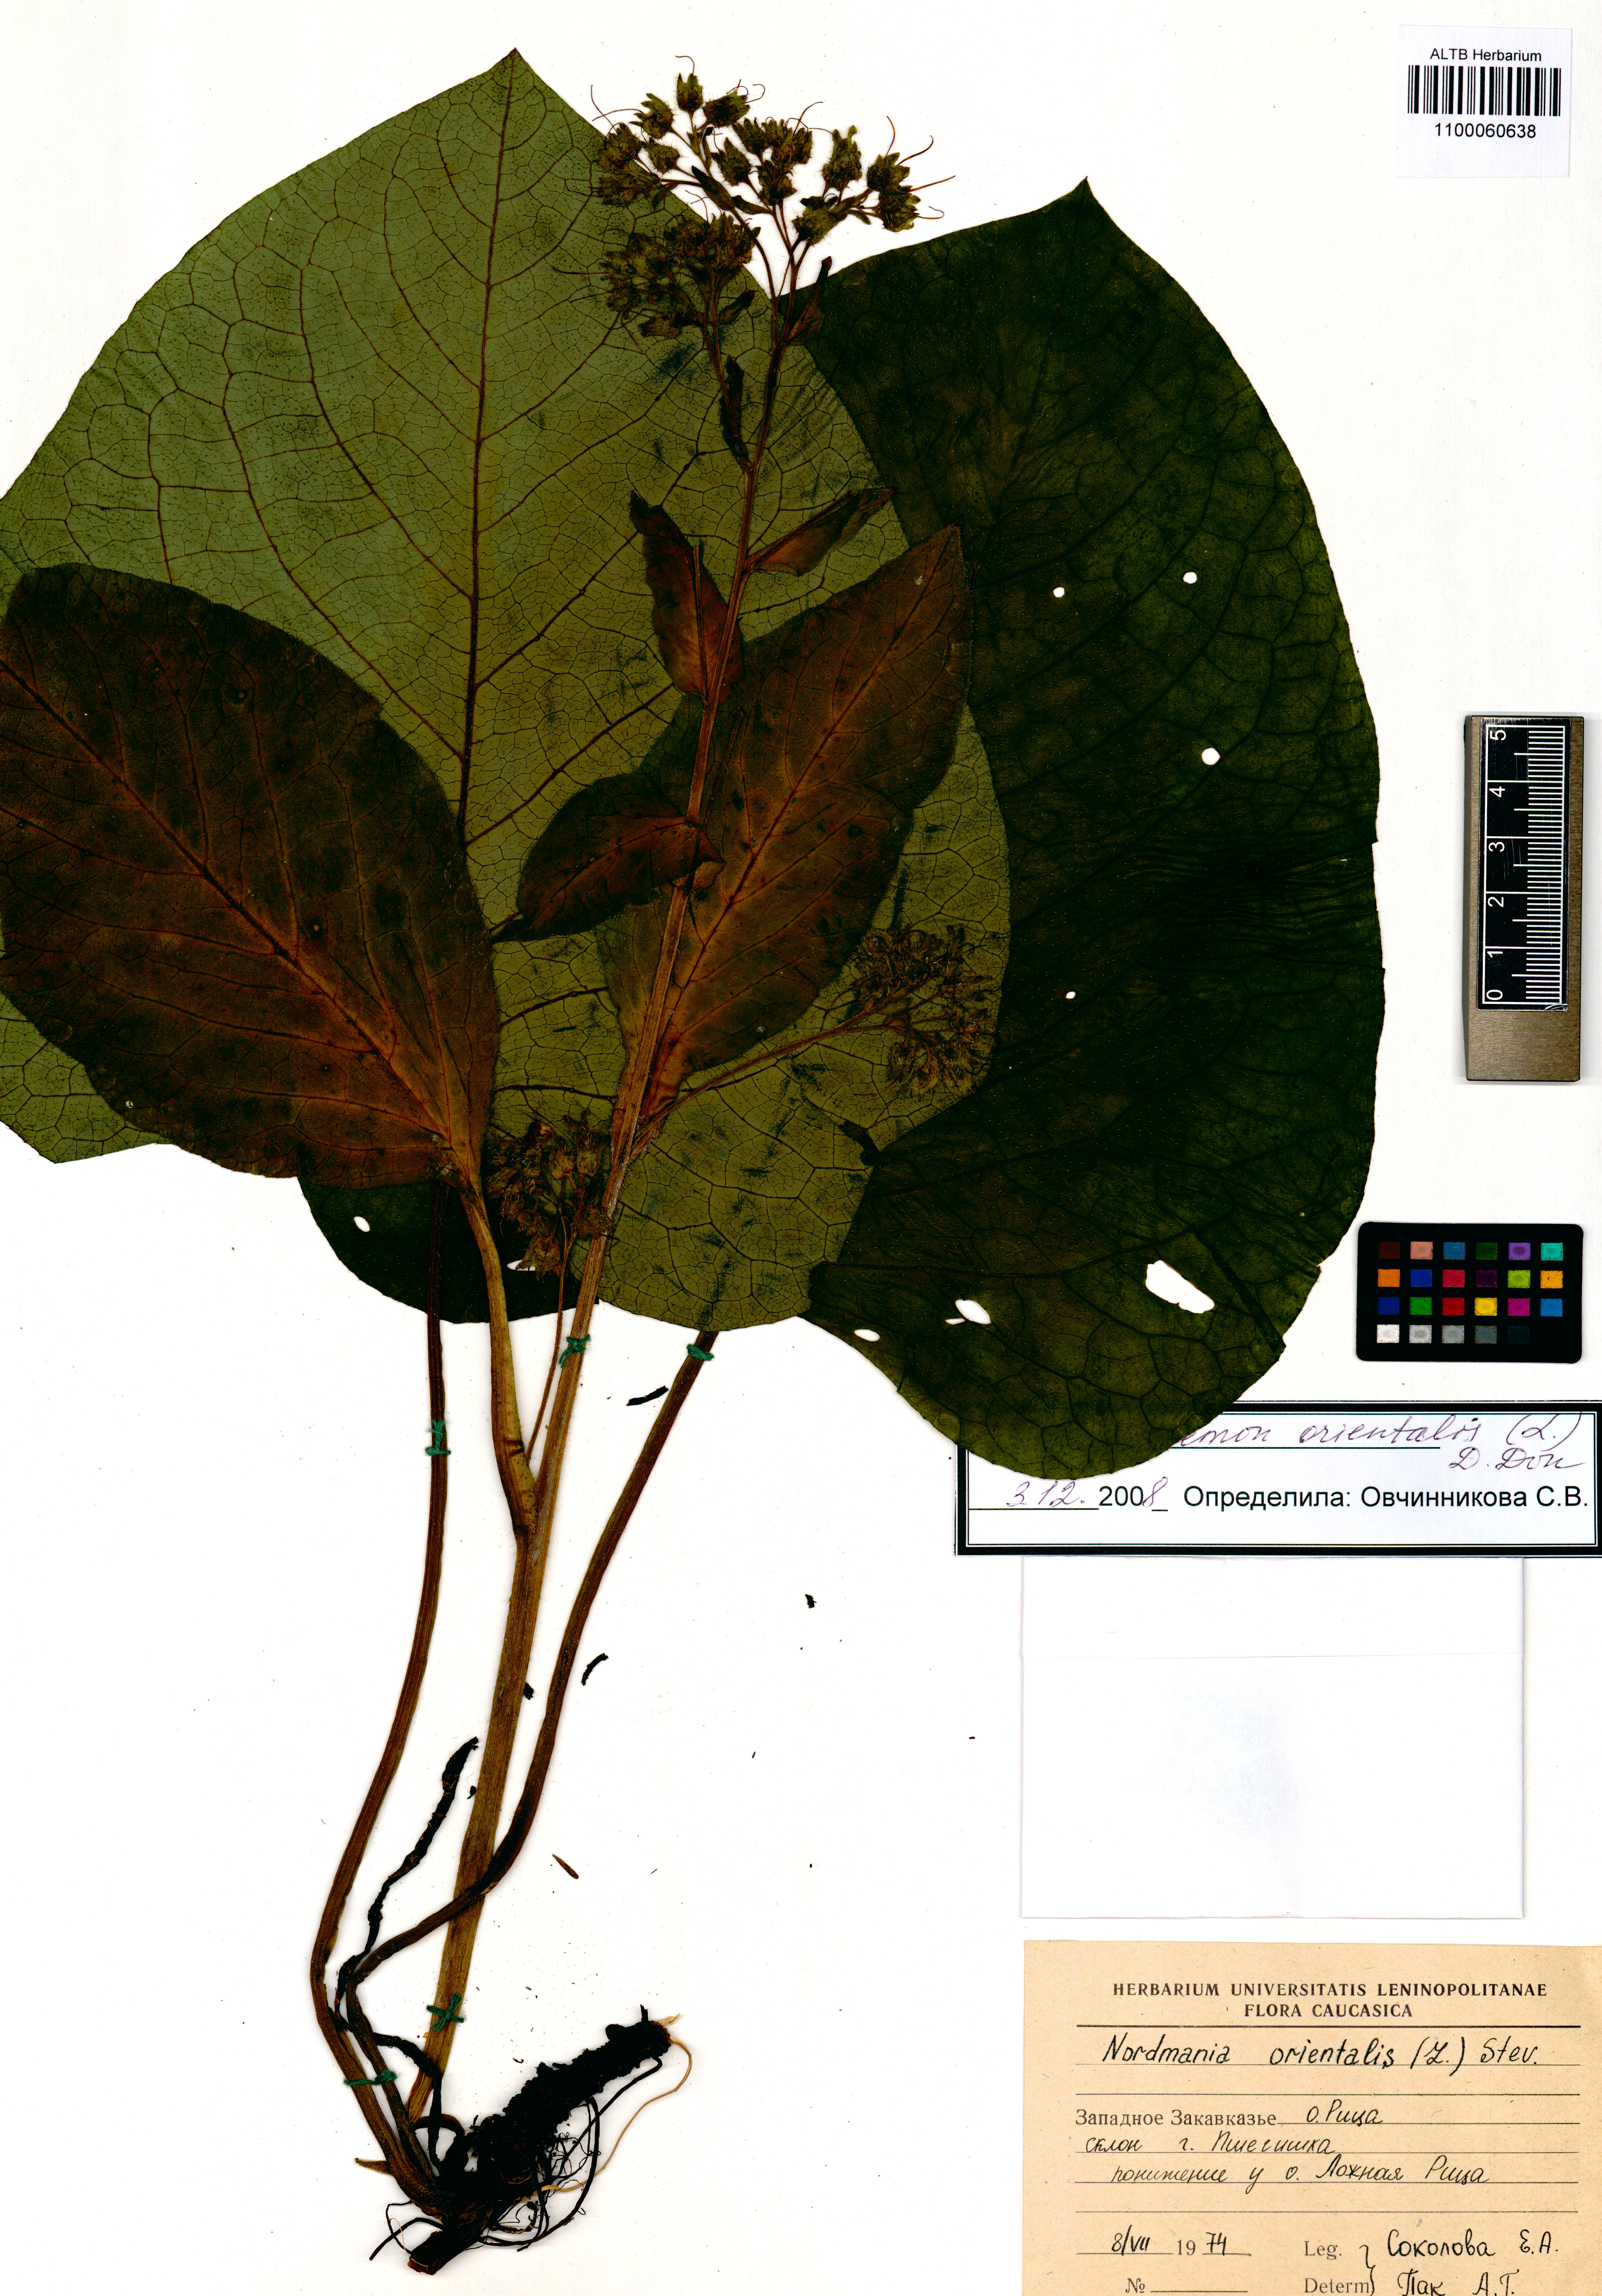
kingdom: Plantae
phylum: Tracheophyta
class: Magnoliopsida
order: Boraginales
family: Boraginaceae
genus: Trachystemon
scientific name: Trachystemon orientale
